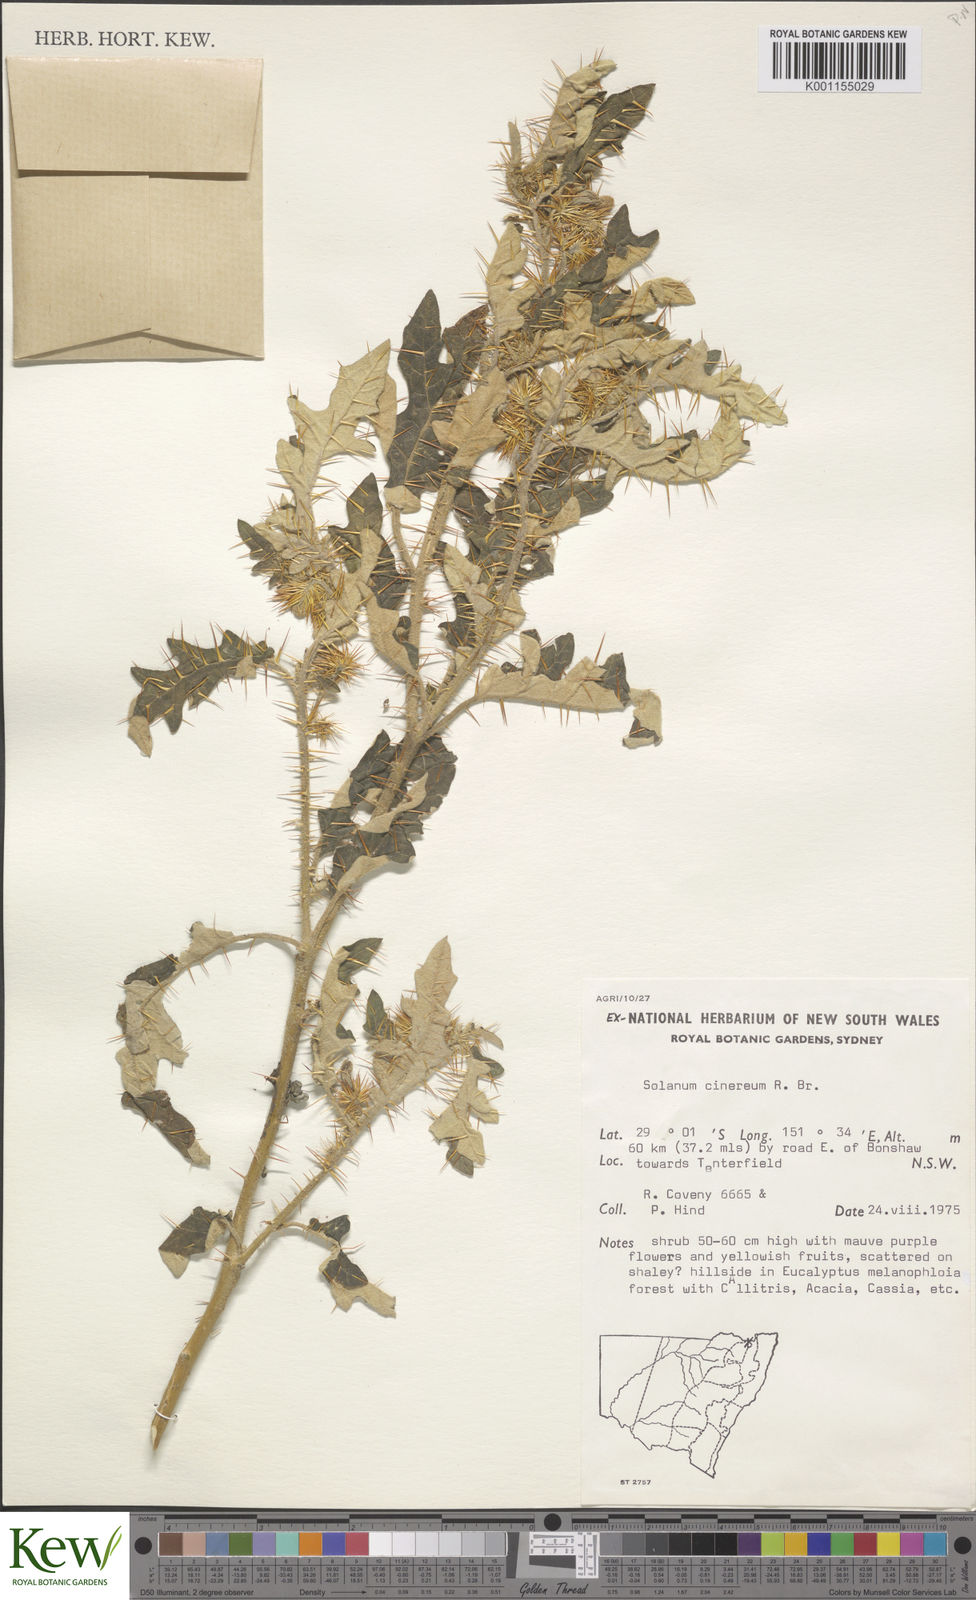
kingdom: Plantae
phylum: Tracheophyta
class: Magnoliopsida
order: Solanales
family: Solanaceae
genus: Solanum
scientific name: Solanum cinereum
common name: Narrawa-bur
